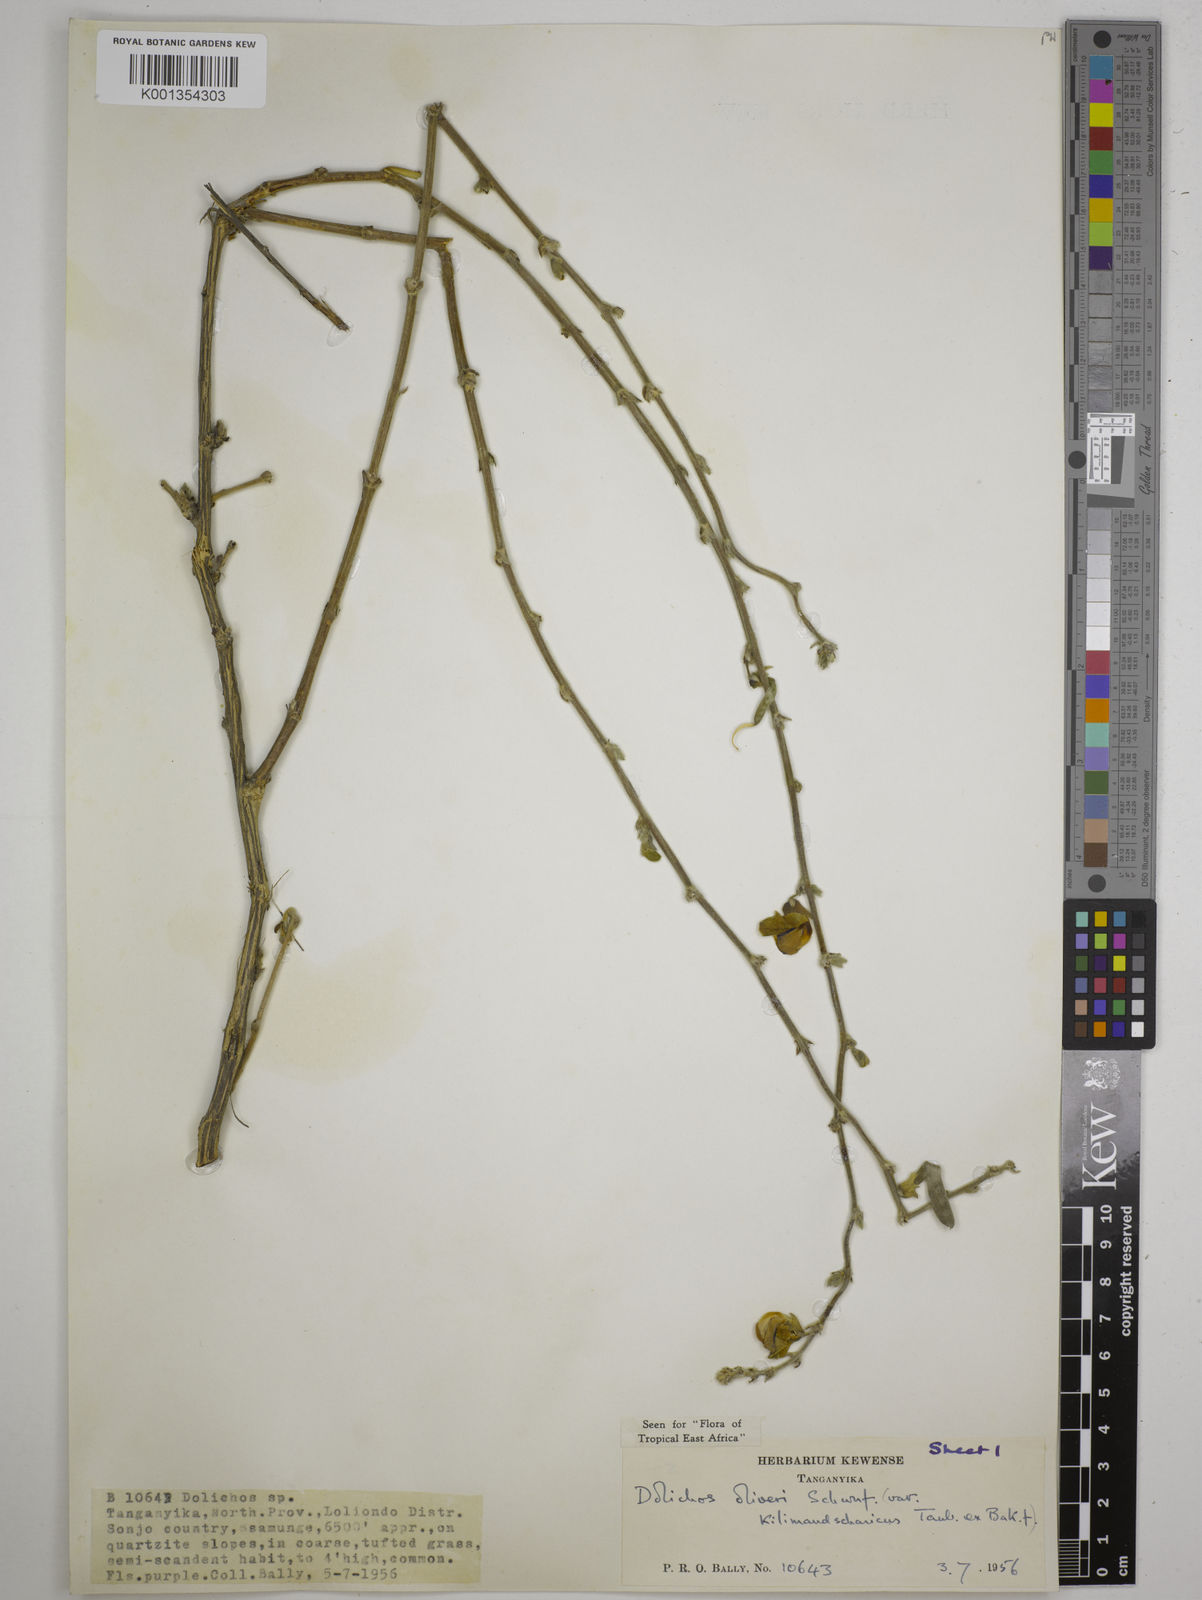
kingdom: Plantae
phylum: Tracheophyta
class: Magnoliopsida
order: Fabales
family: Fabaceae
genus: Dolichos
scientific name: Dolichos oliveri
